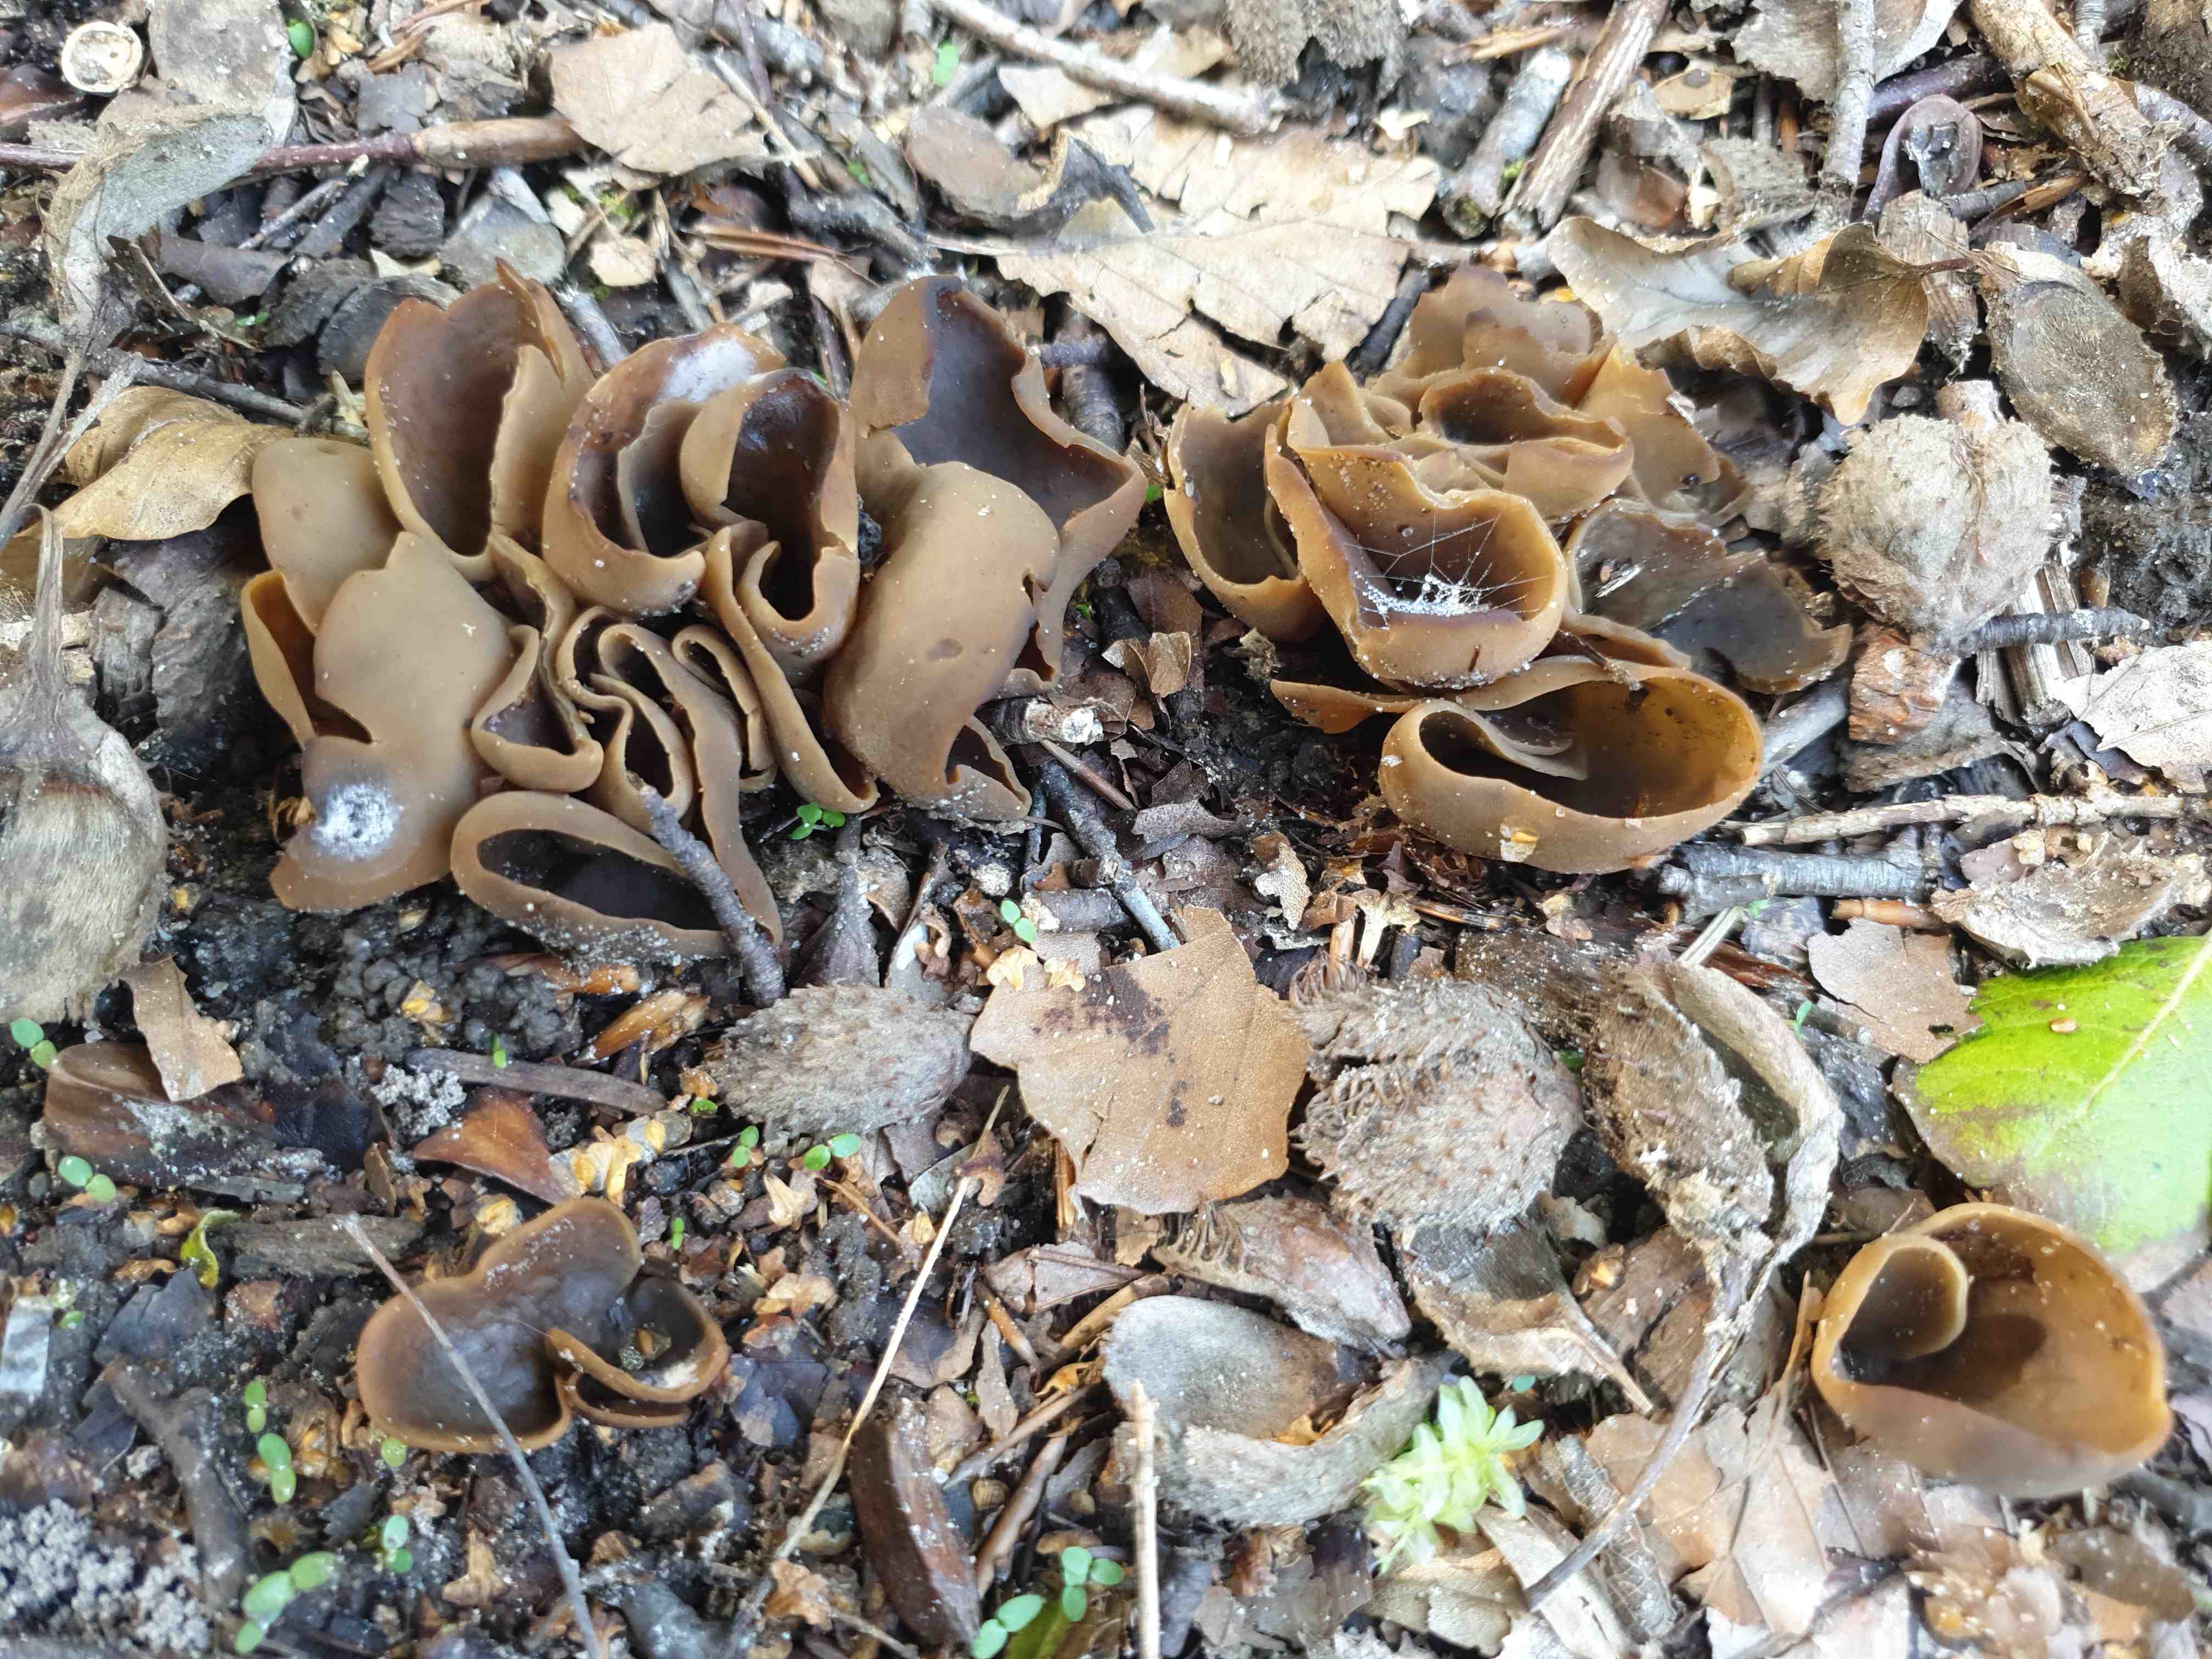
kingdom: Fungi
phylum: Ascomycota
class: Pezizomycetes
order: Pezizales
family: Otideaceae
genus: Otidea
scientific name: Otidea
